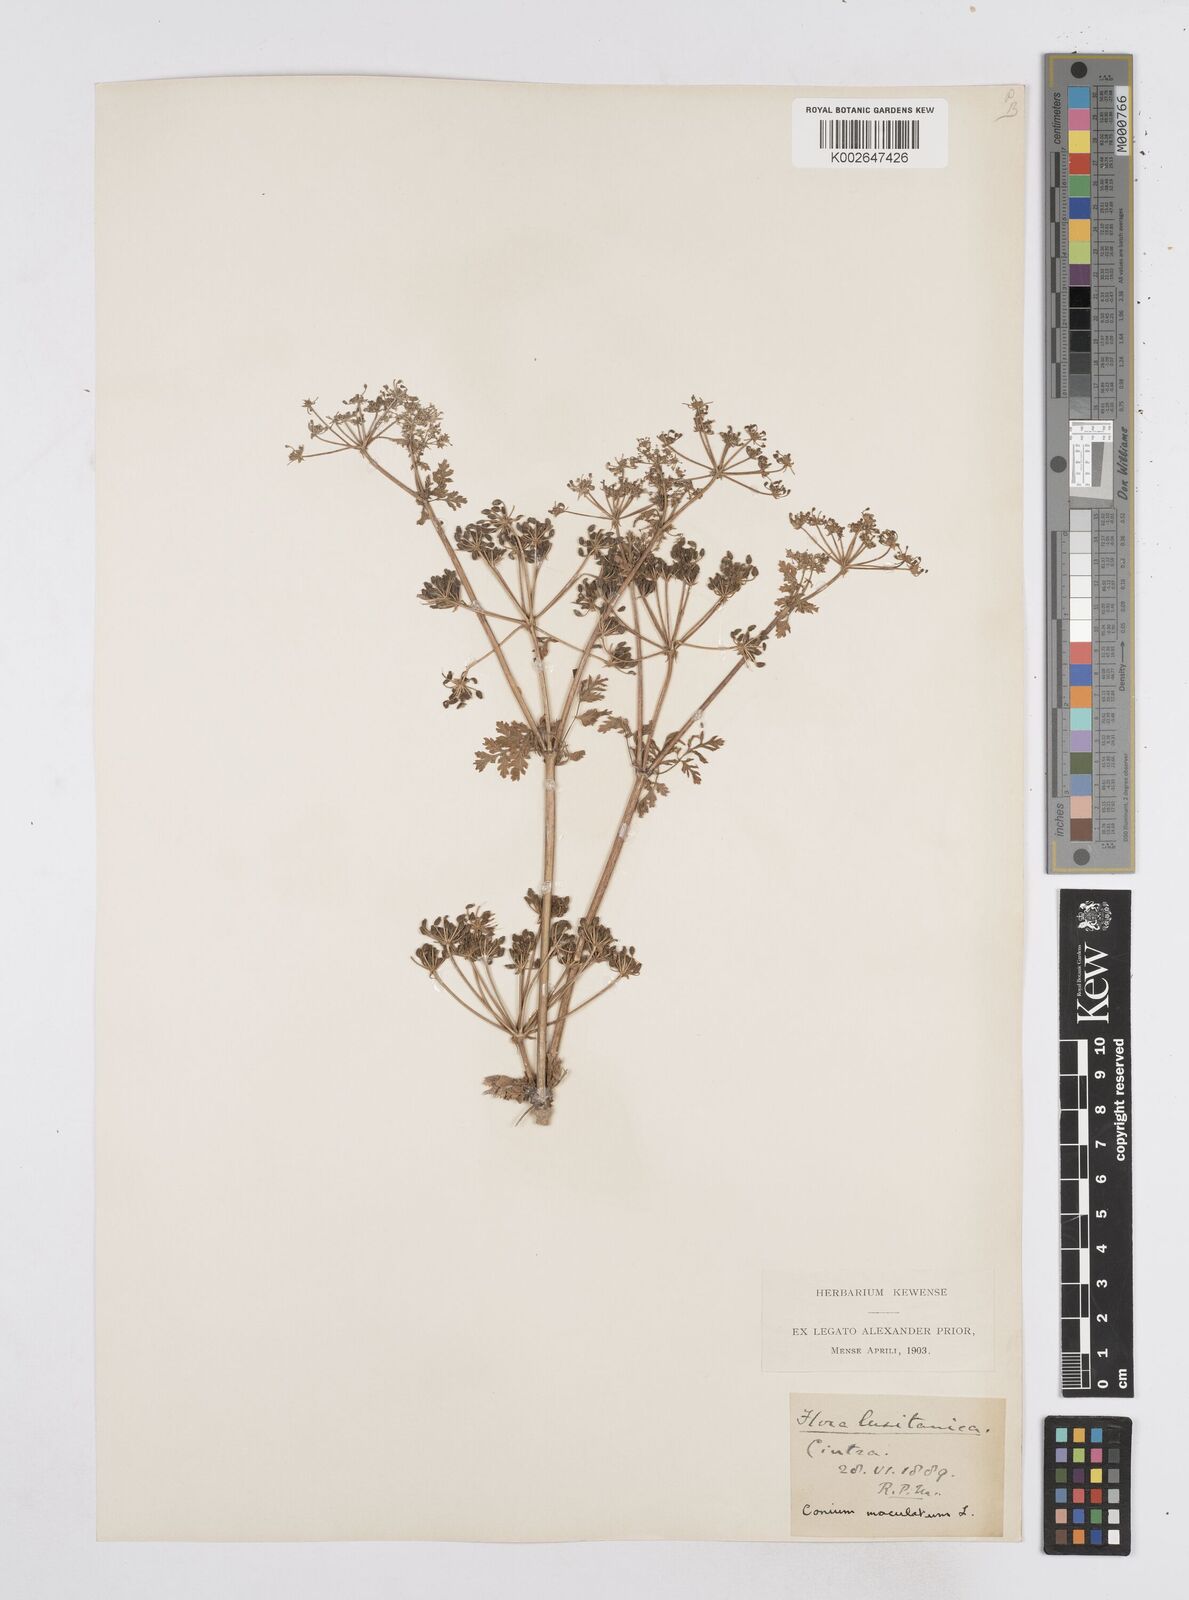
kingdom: Plantae
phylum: Tracheophyta
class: Magnoliopsida
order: Apiales
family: Apiaceae
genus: Conium
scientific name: Conium maculatum
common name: Hemlock
